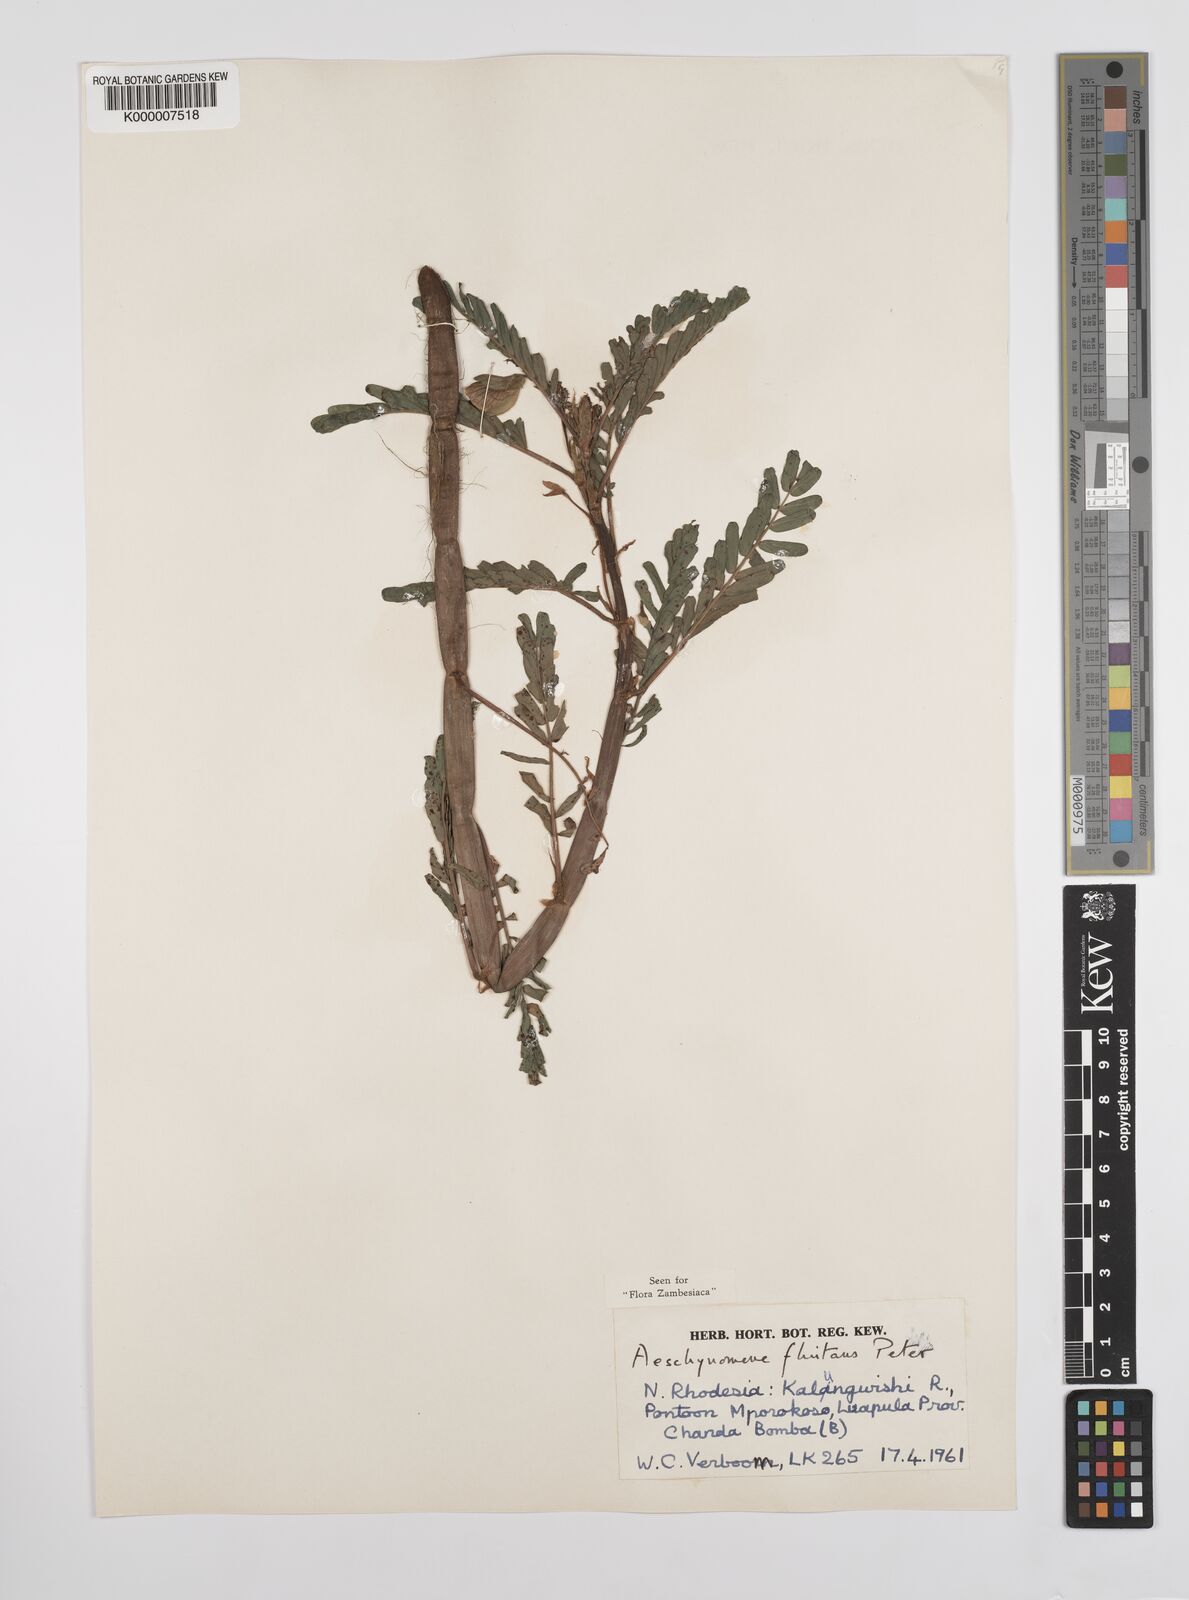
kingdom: Plantae
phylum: Tracheophyta
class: Magnoliopsida
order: Fabales
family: Fabaceae
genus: Aeschynomene
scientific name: Aeschynomene fluitans
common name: Giant water sensitive plant
